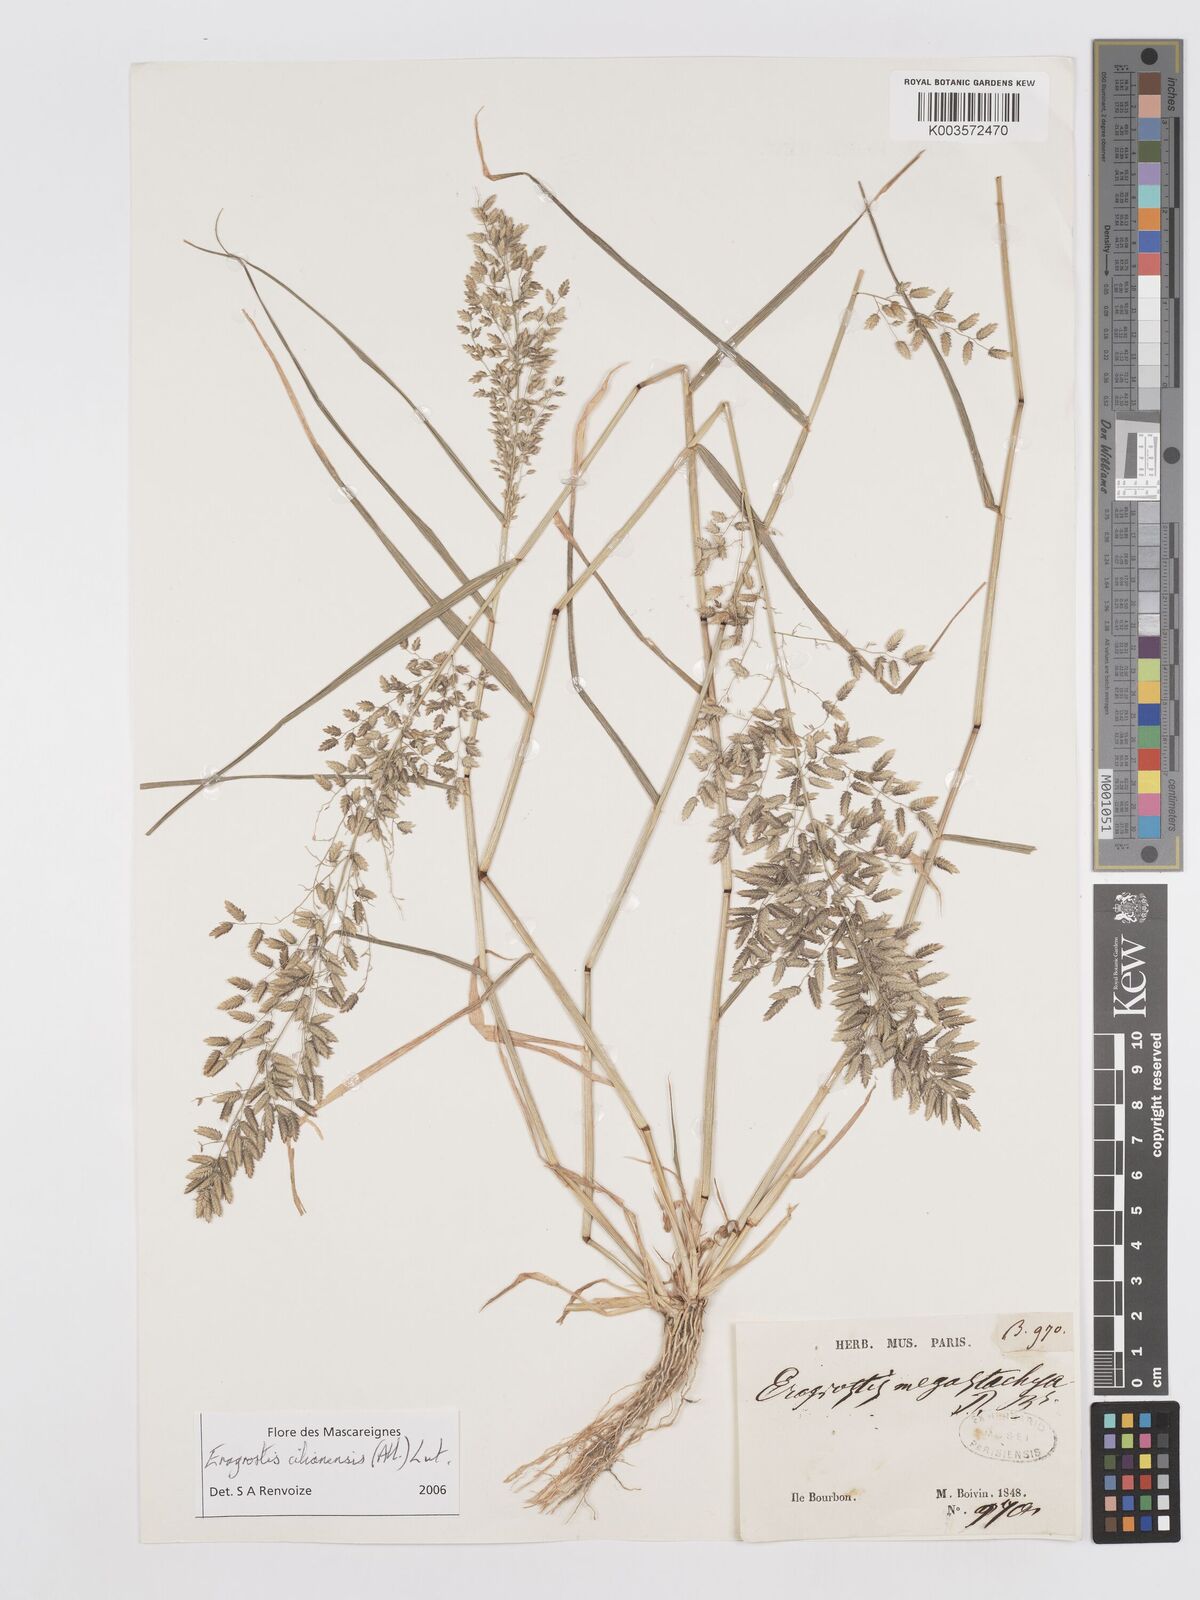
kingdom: Plantae
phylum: Tracheophyta
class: Liliopsida
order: Poales
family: Poaceae
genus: Eragrostis
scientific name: Eragrostis cilianensis
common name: Stinkgrass
